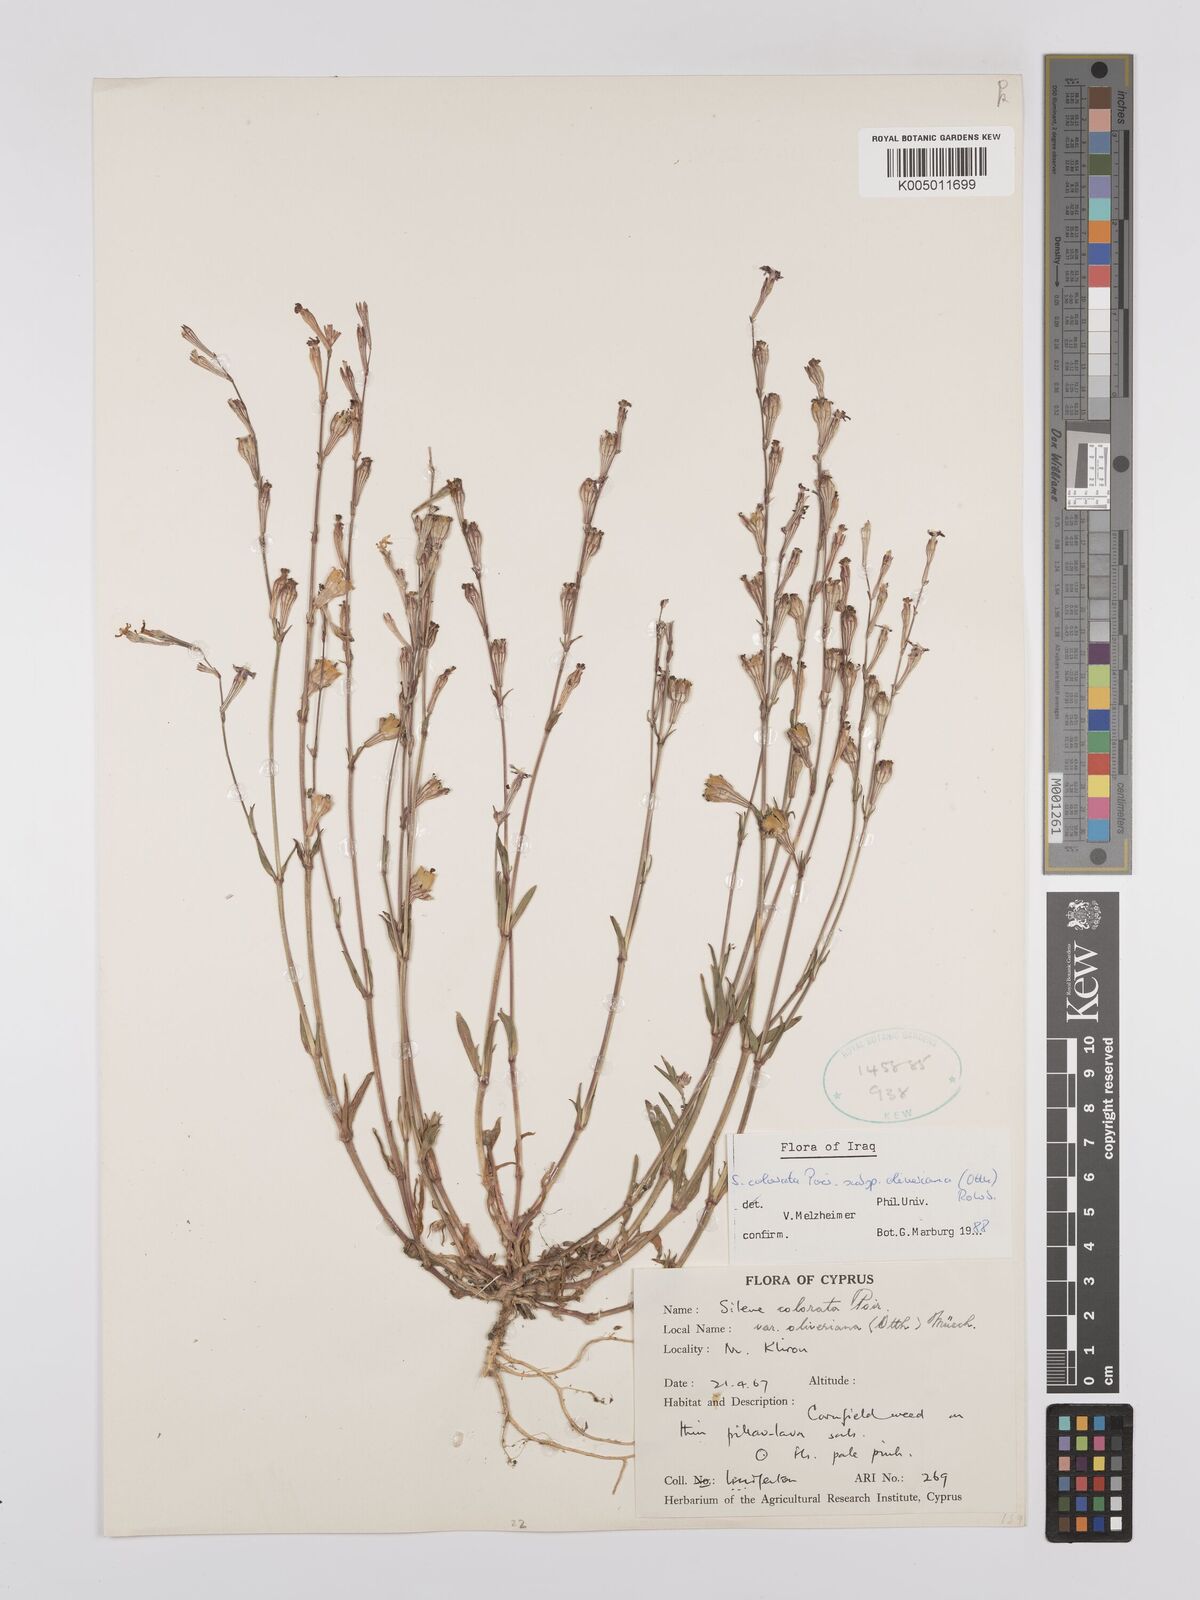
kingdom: Plantae
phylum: Tracheophyta
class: Magnoliopsida
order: Caryophyllales
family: Caryophyllaceae
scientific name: Caryophyllaceae
